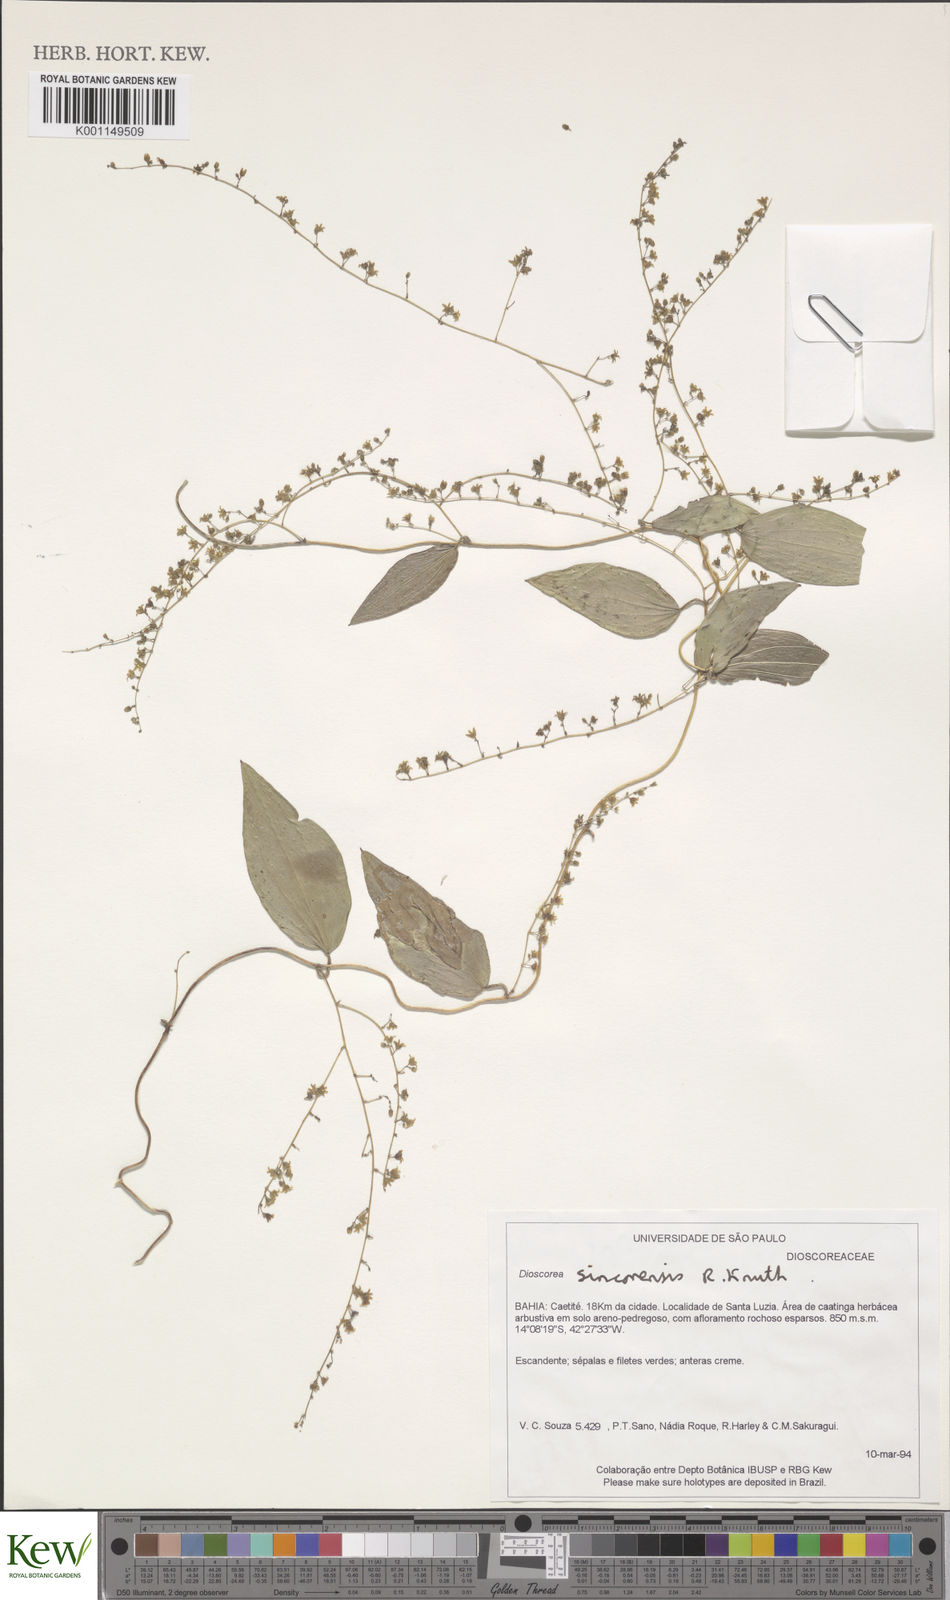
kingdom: Plantae
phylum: Tracheophyta
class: Liliopsida
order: Dioscoreales
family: Dioscoreaceae
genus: Dioscorea
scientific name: Dioscorea campestris
